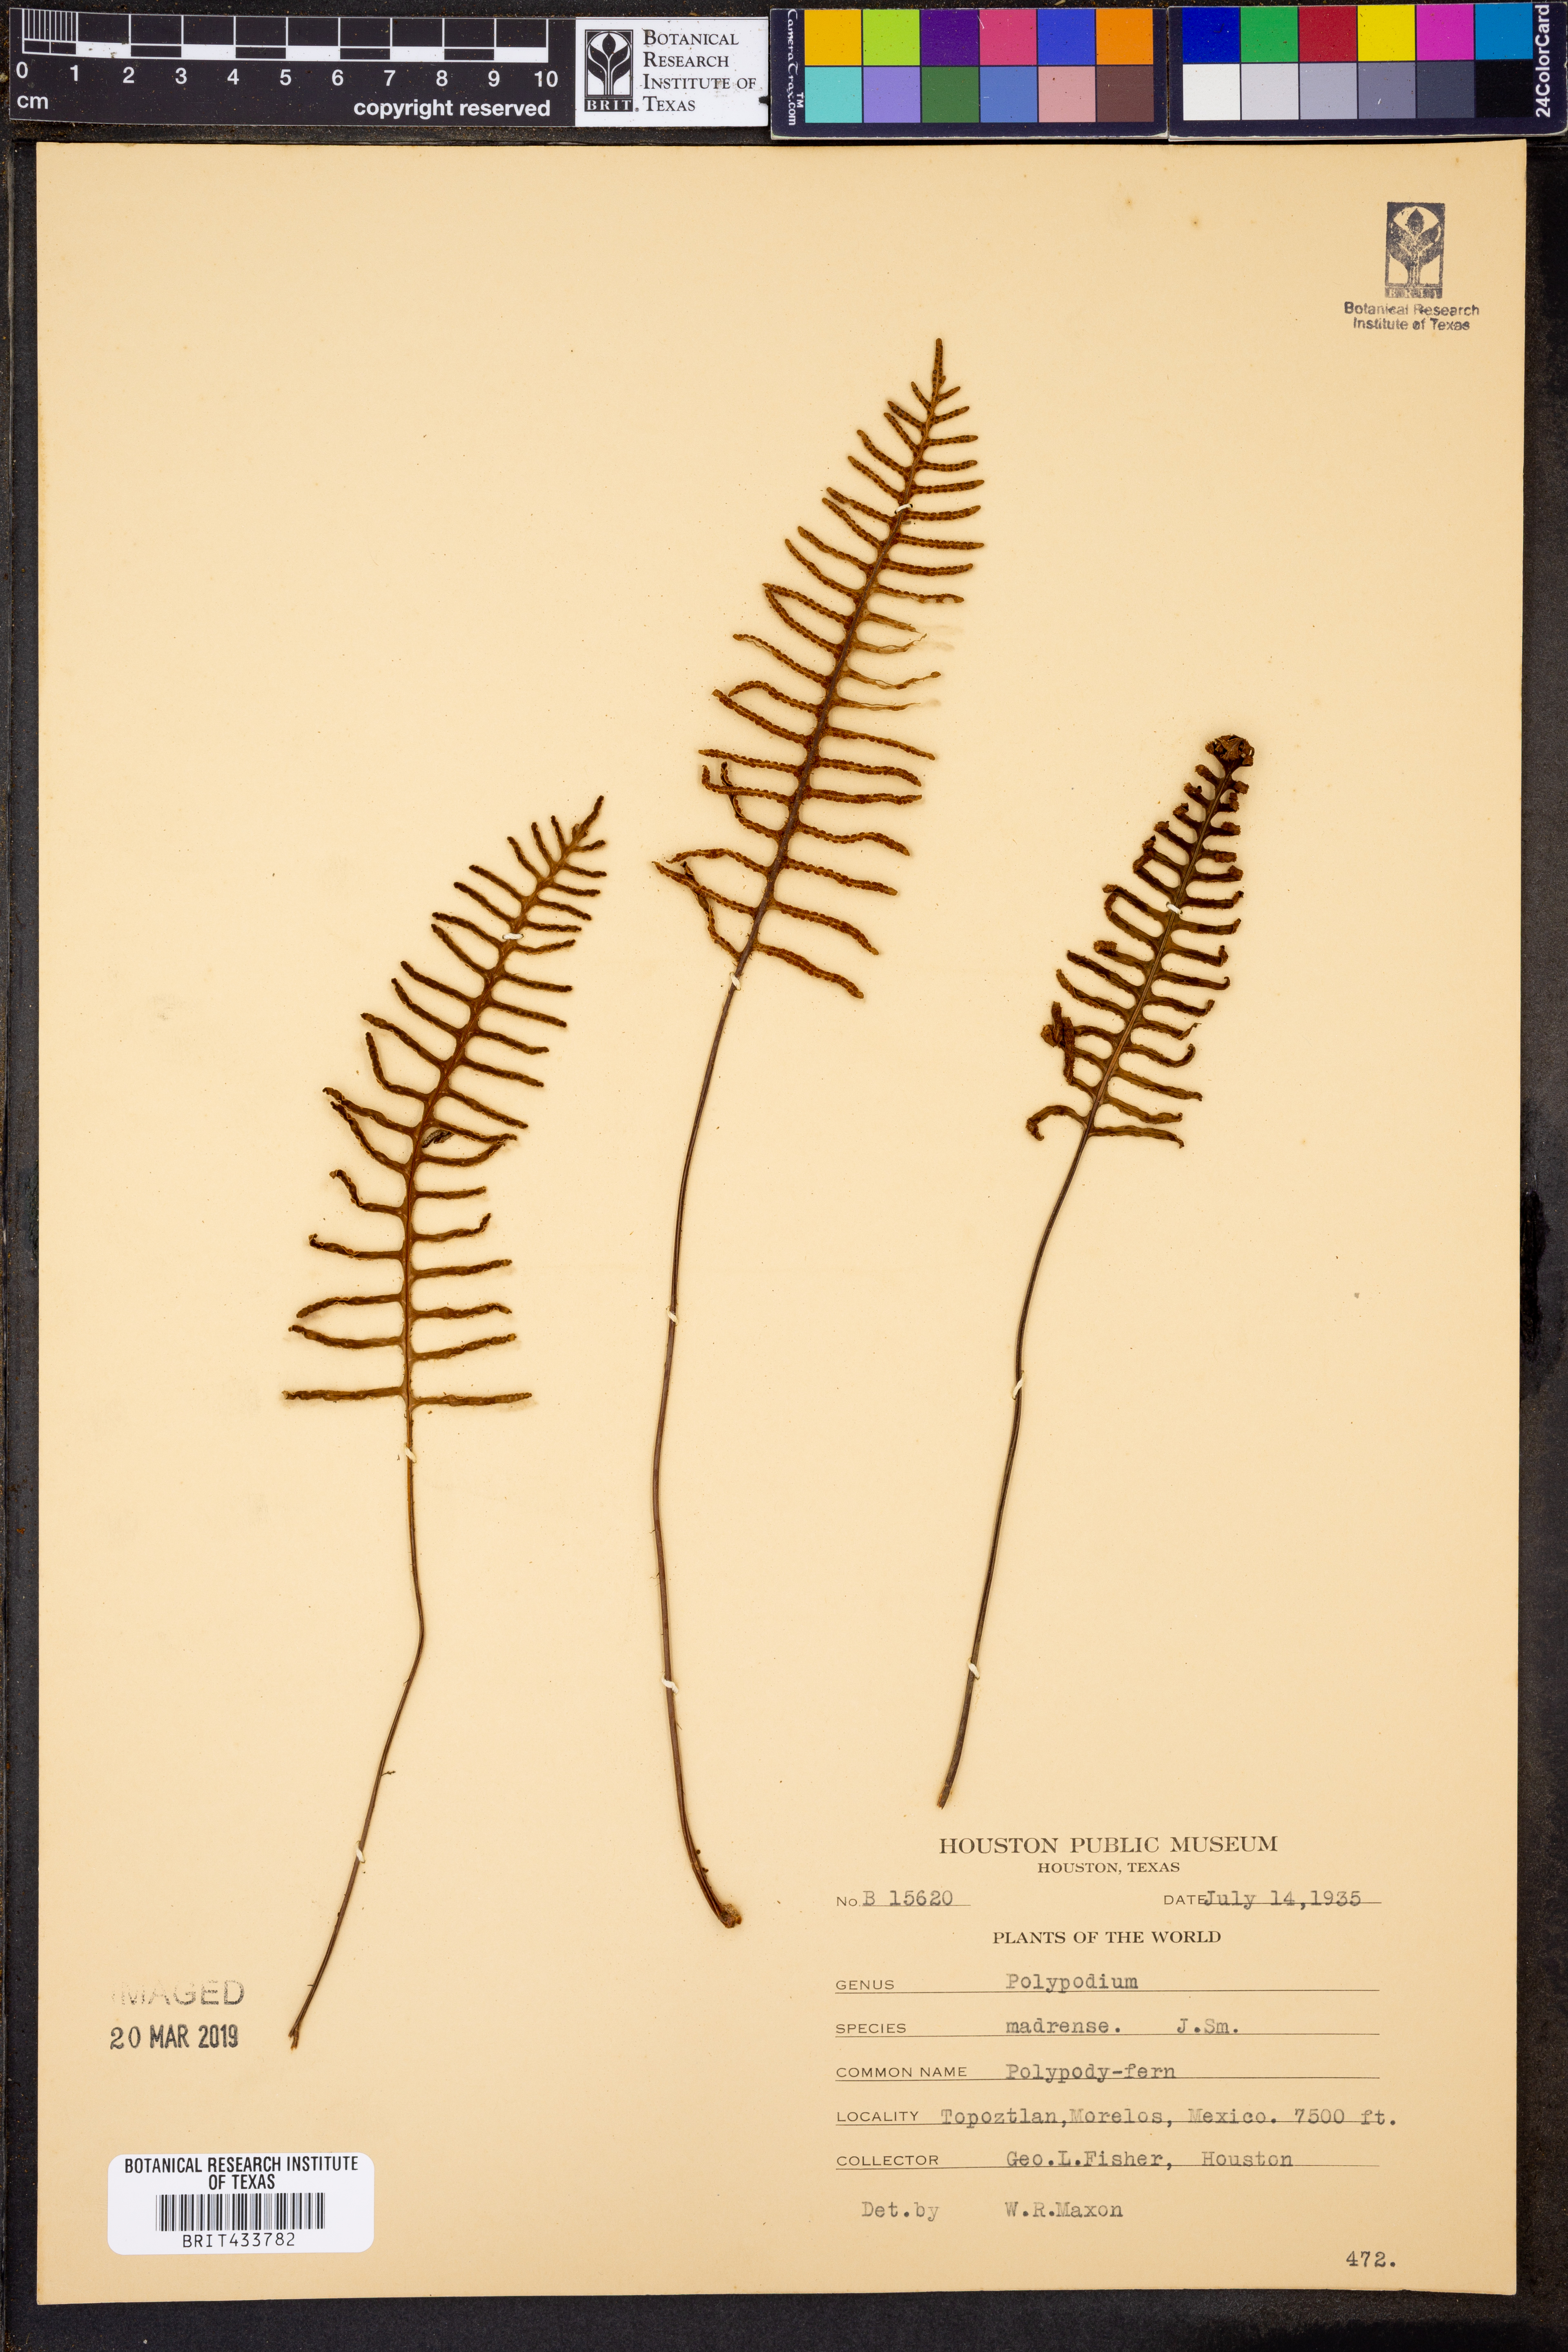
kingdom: Plantae
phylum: Tracheophyta
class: Polypodiopsida
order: Polypodiales
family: Polypodiaceae
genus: Pleopeltis
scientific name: Pleopeltis madrensis
